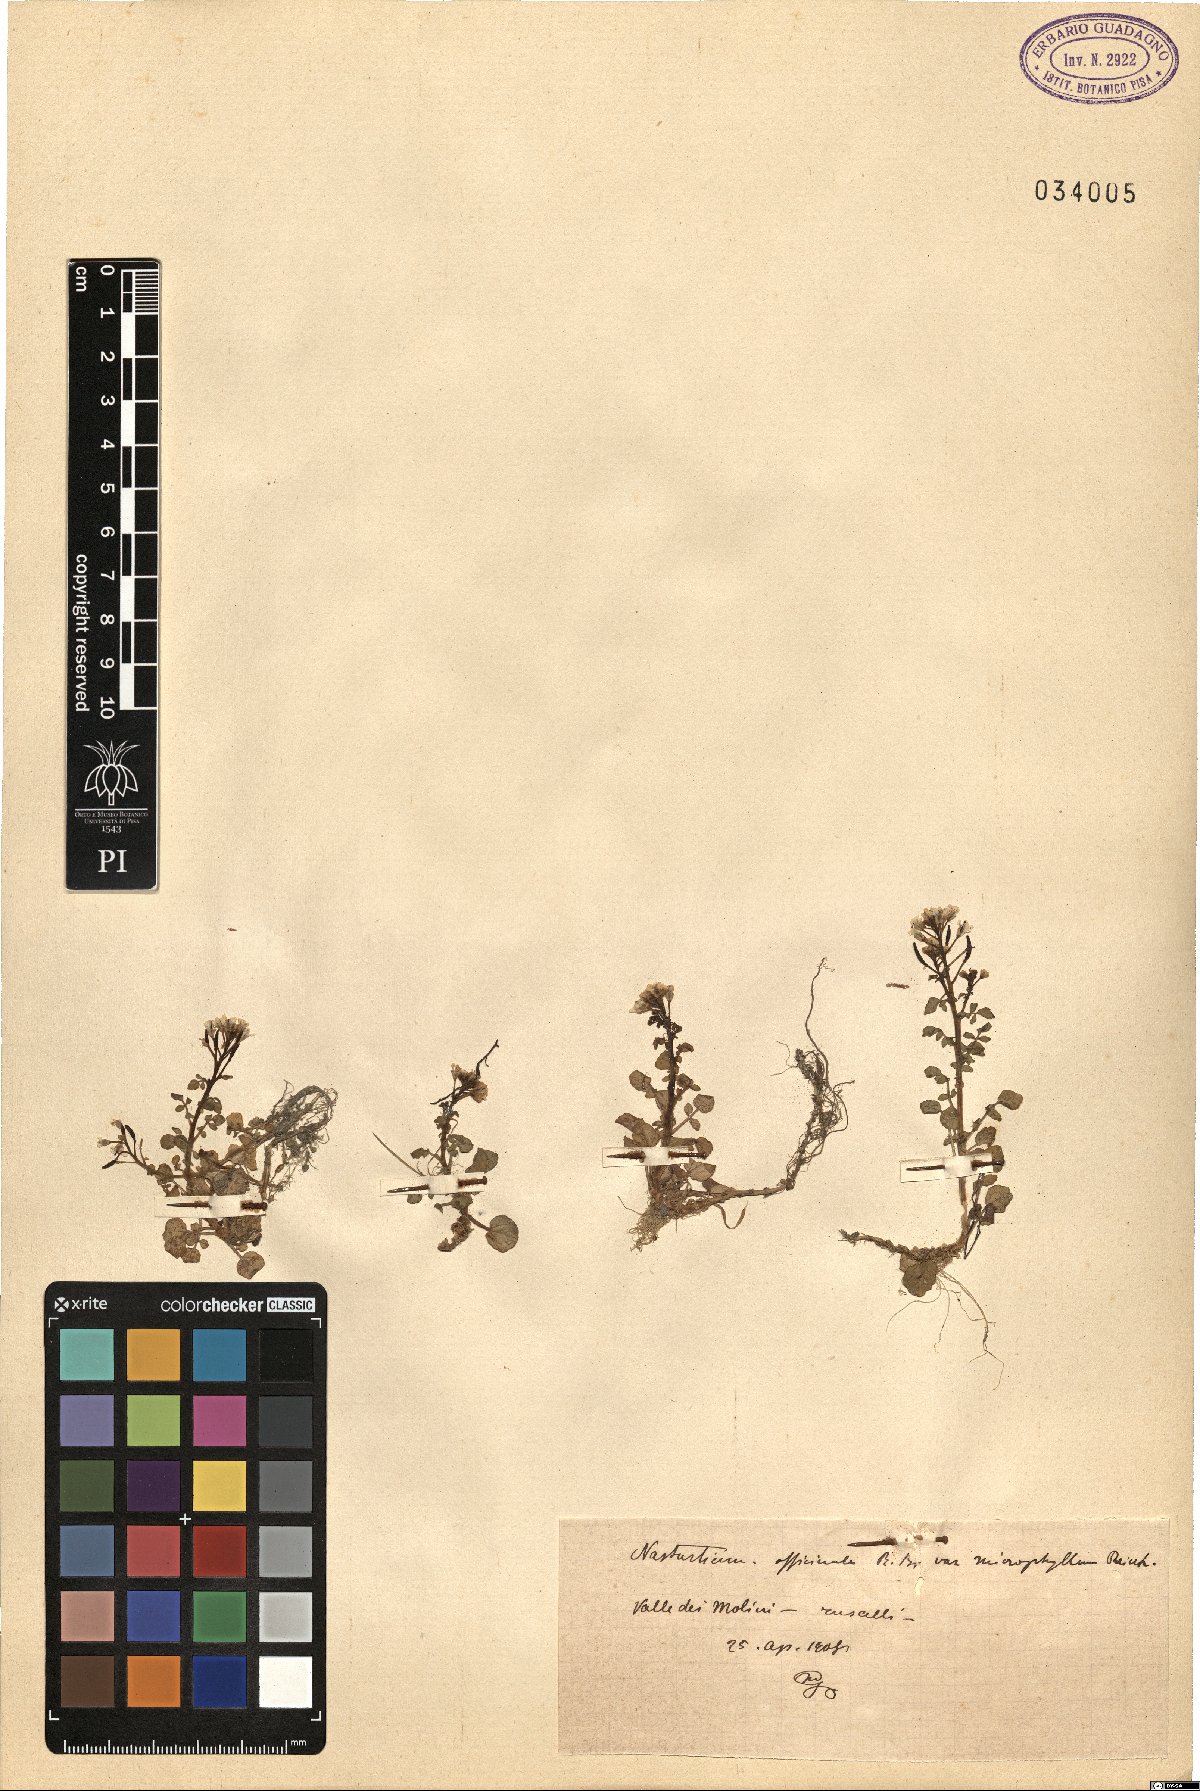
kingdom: Plantae
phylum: Tracheophyta
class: Magnoliopsida
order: Brassicales
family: Brassicaceae
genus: Nasturtium
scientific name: Nasturtium microphyllum
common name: Onerow yellowcress
